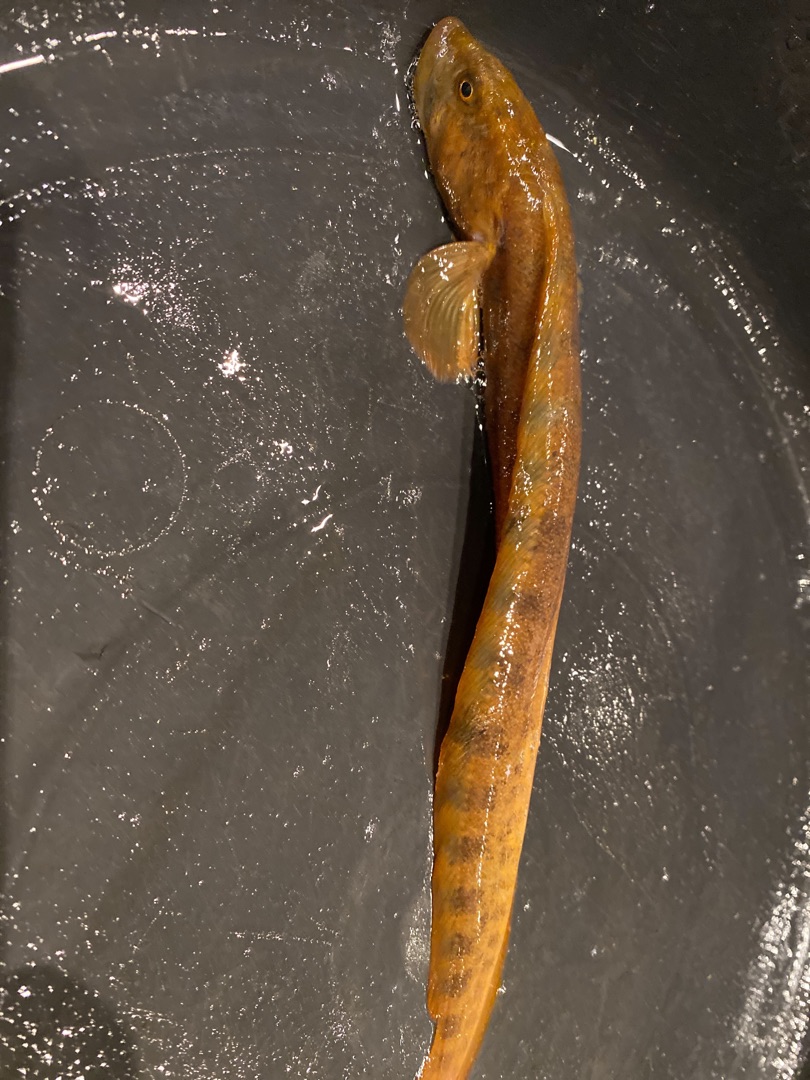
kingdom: Animalia
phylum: Chordata
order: Perciformes
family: Zoarcidae
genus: Zoarces
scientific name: Zoarces viviparus
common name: Ålekvabbe
